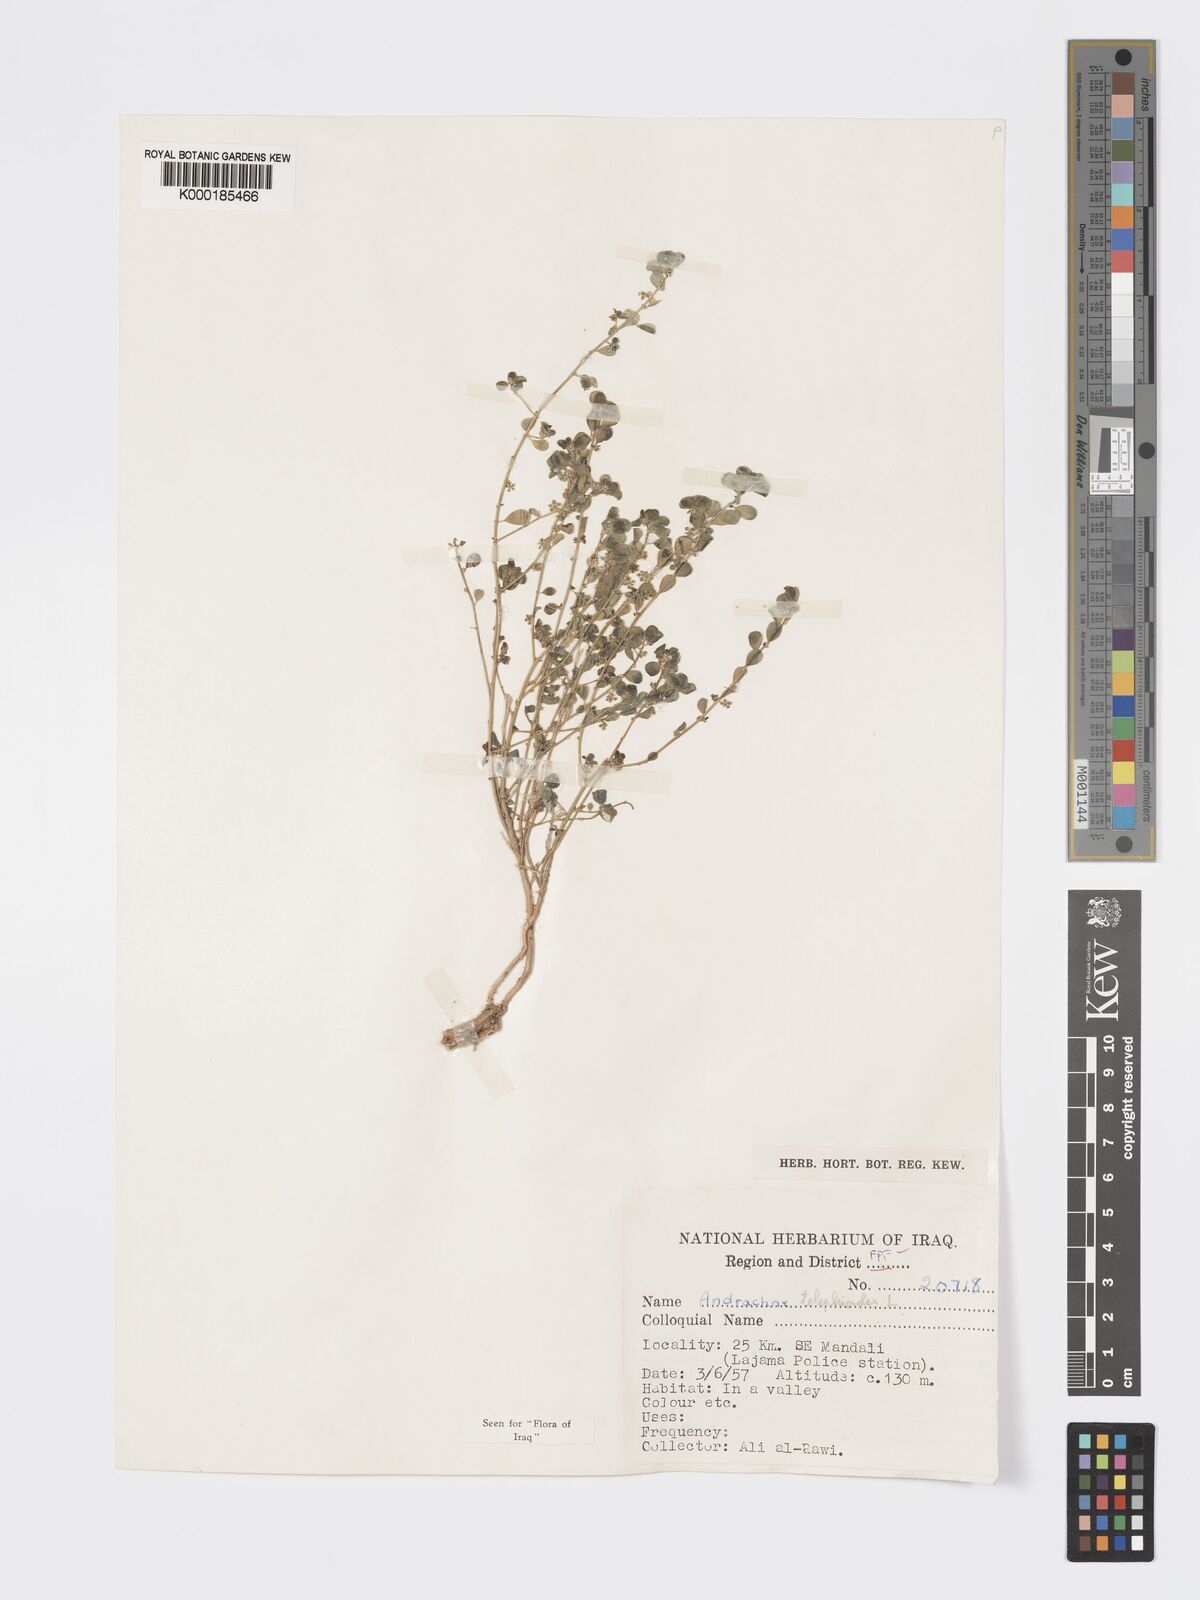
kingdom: Plantae
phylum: Tracheophyta
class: Magnoliopsida
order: Malpighiales
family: Phyllanthaceae
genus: Andrachne
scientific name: Andrachne telephioides
